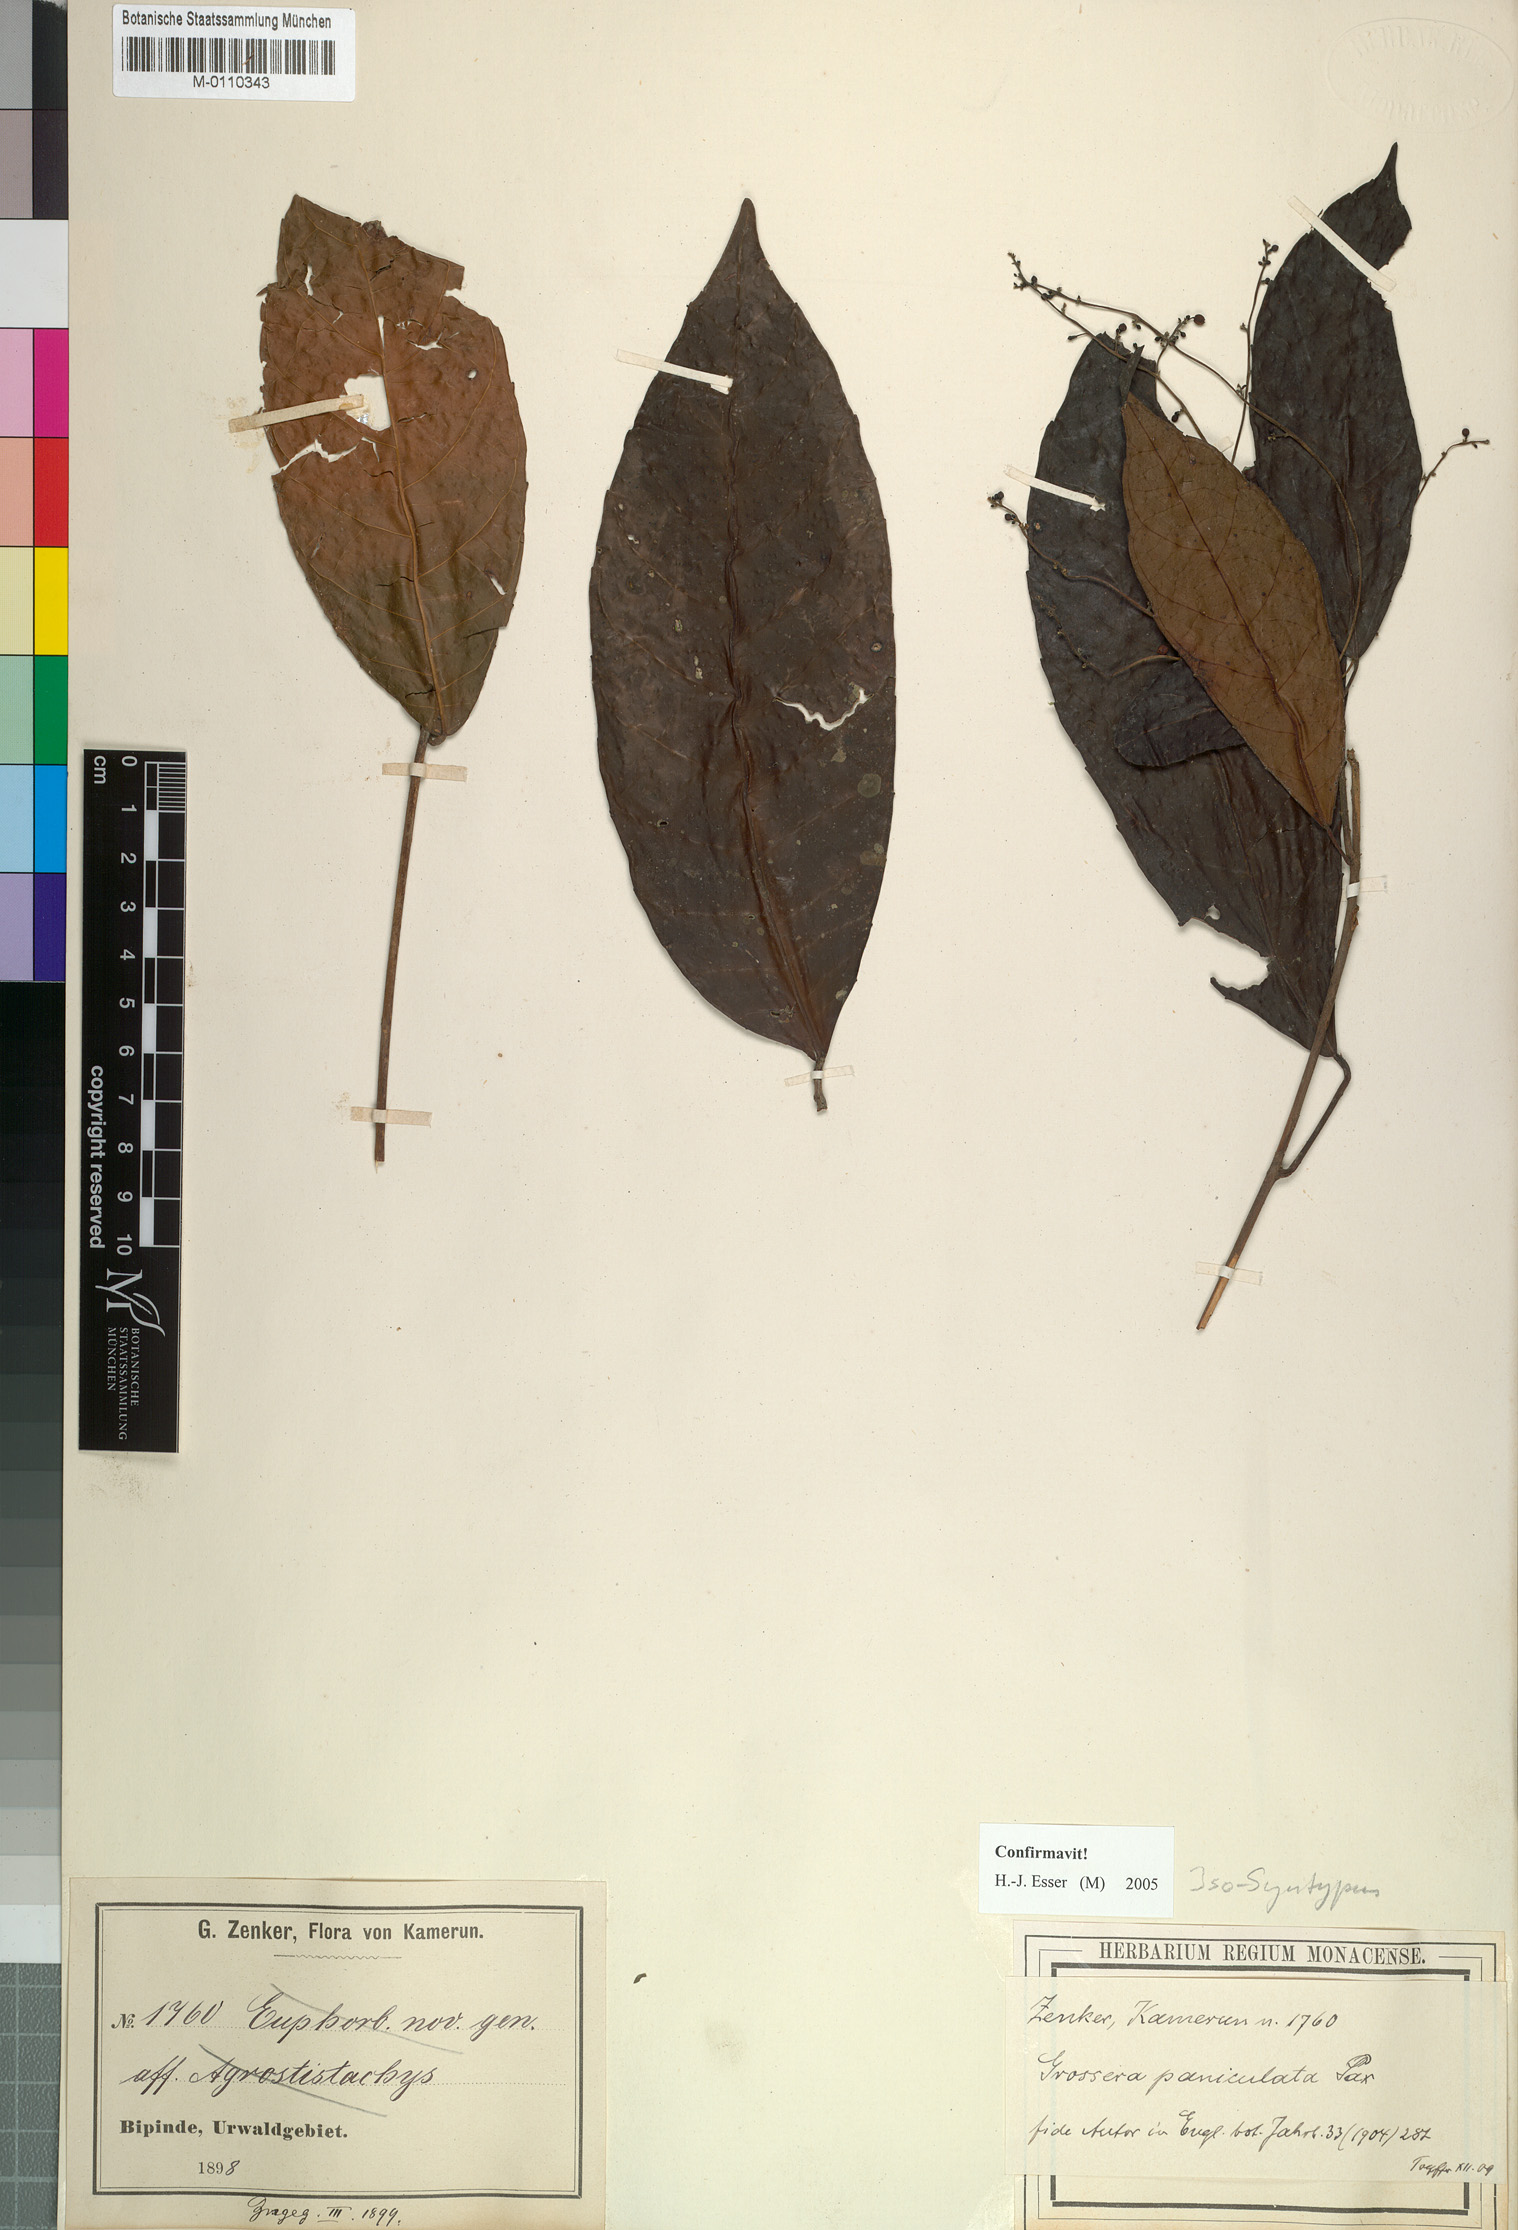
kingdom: Plantae
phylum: Tracheophyta
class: Magnoliopsida
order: Malpighiales
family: Euphorbiaceae
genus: Grossera
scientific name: Grossera paniculata
